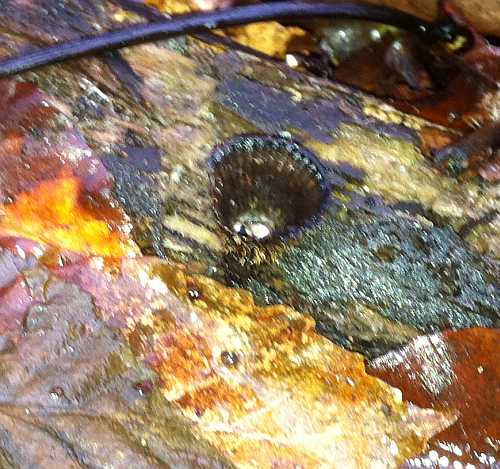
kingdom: Fungi
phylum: Basidiomycota
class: Agaricomycetes
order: Agaricales
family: Agaricaceae
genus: Cyathus
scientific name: Cyathus striatus
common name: stribet redesvamp
